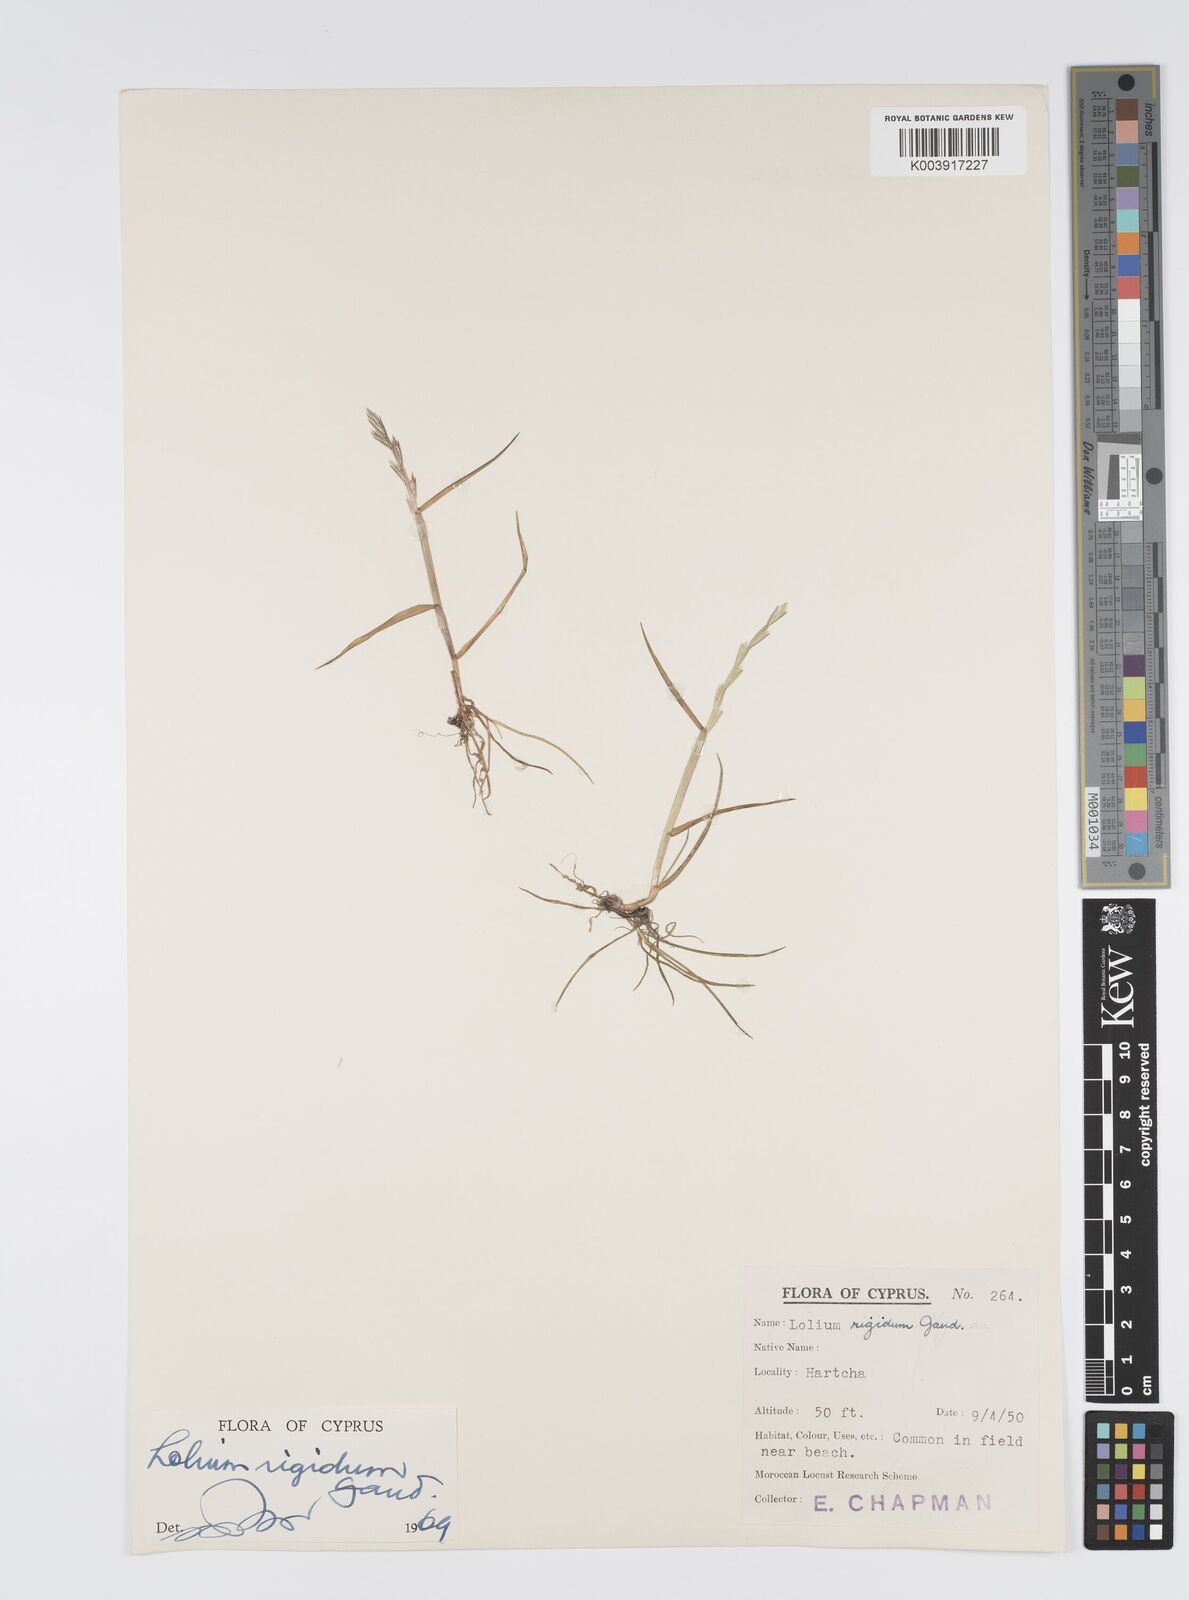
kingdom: Plantae
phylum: Tracheophyta
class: Liliopsida
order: Poales
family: Poaceae
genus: Lolium
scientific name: Lolium rigidum
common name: Wimmera ryegrass
